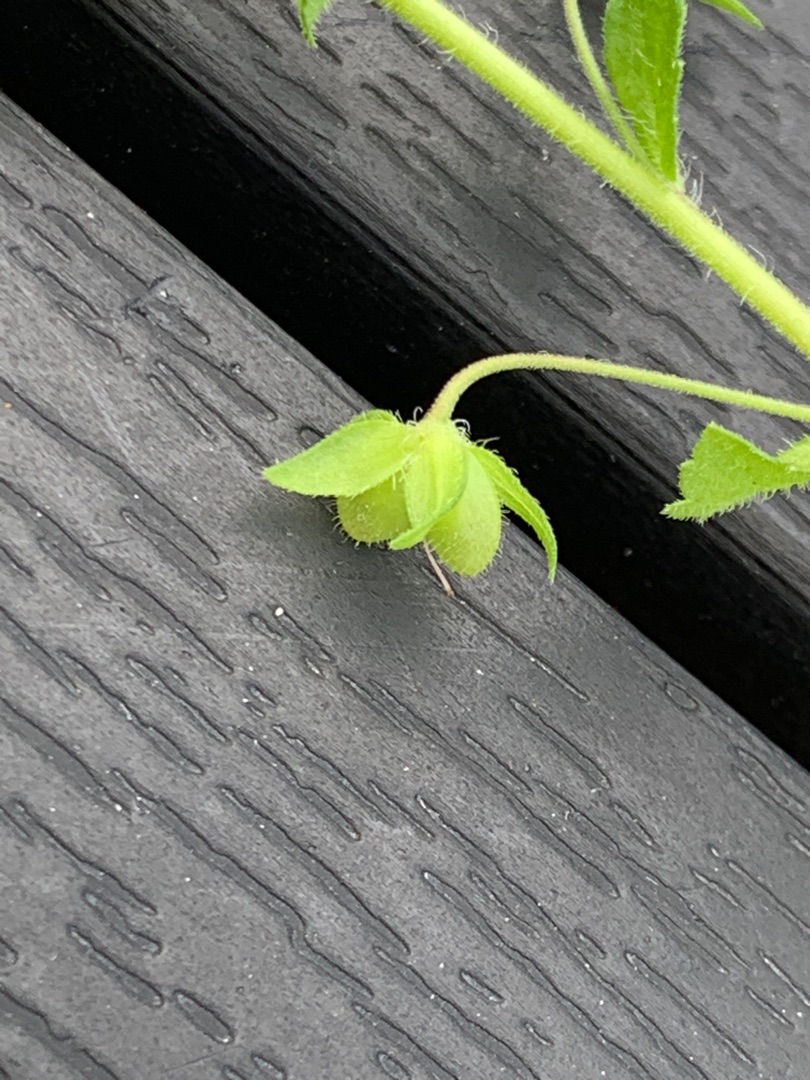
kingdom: Plantae
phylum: Tracheophyta
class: Magnoliopsida
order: Lamiales
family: Plantaginaceae
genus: Veronica
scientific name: Veronica persica
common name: Storkronet ærenpris
